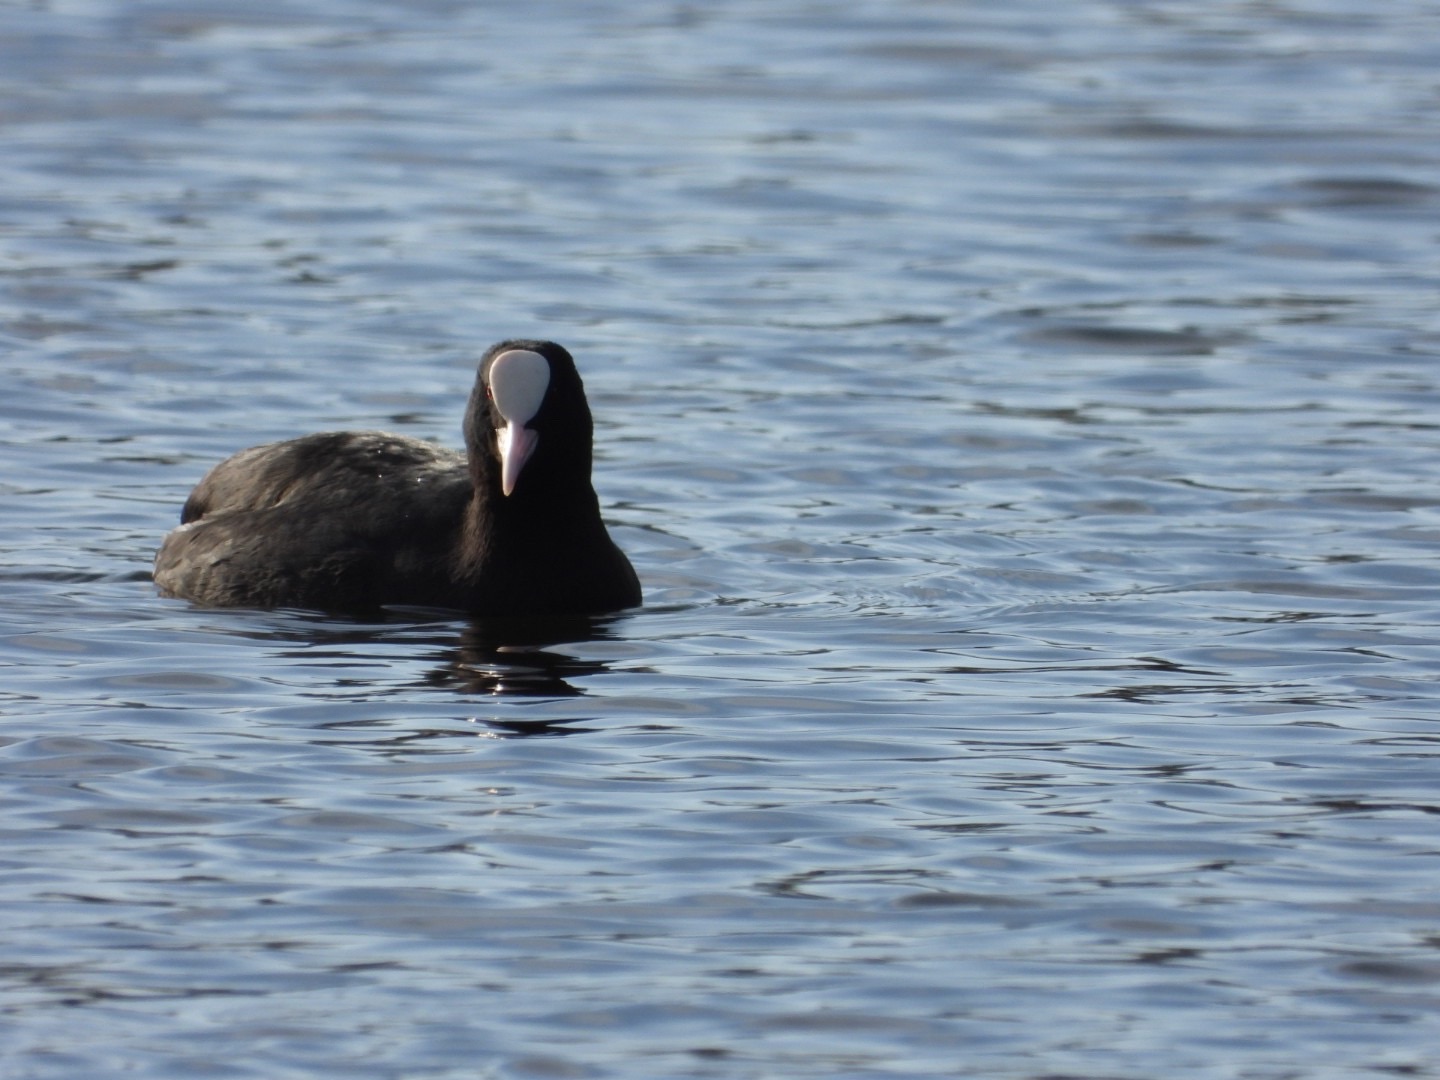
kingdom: Animalia
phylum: Chordata
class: Aves
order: Gruiformes
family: Rallidae
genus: Fulica
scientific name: Fulica atra
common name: Blishøne
